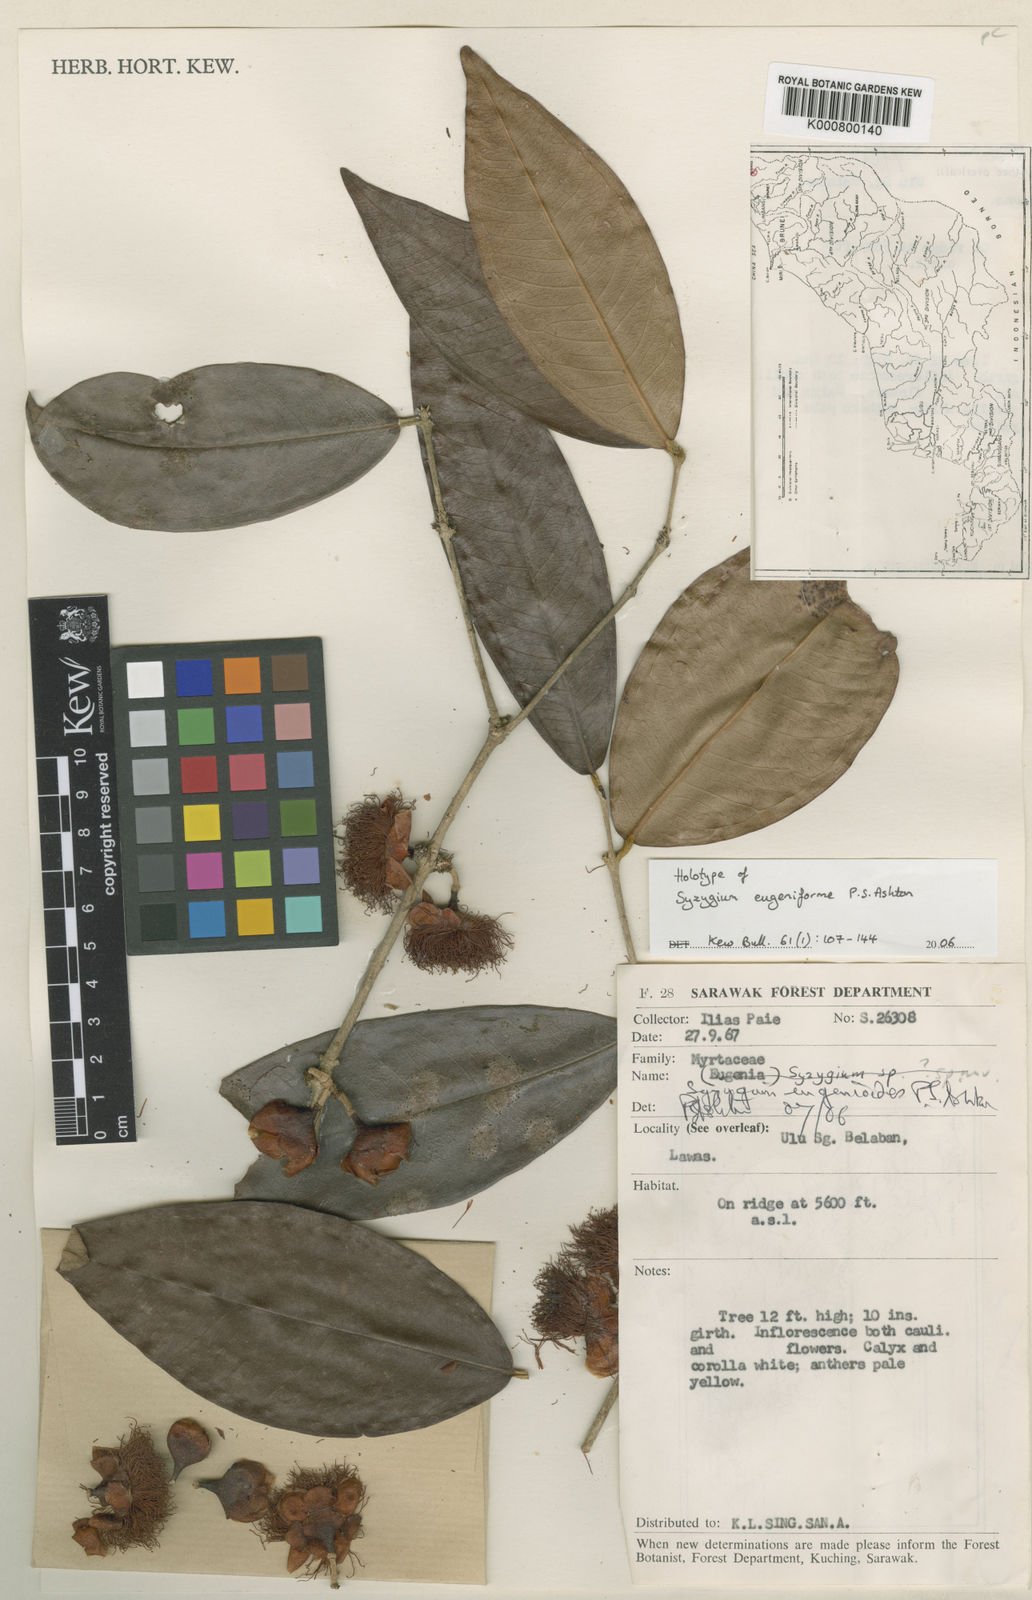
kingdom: Plantae
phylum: Tracheophyta
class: Magnoliopsida
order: Myrtales
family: Myrtaceae
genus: Syzygium
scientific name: Syzygium eugeniiforme
